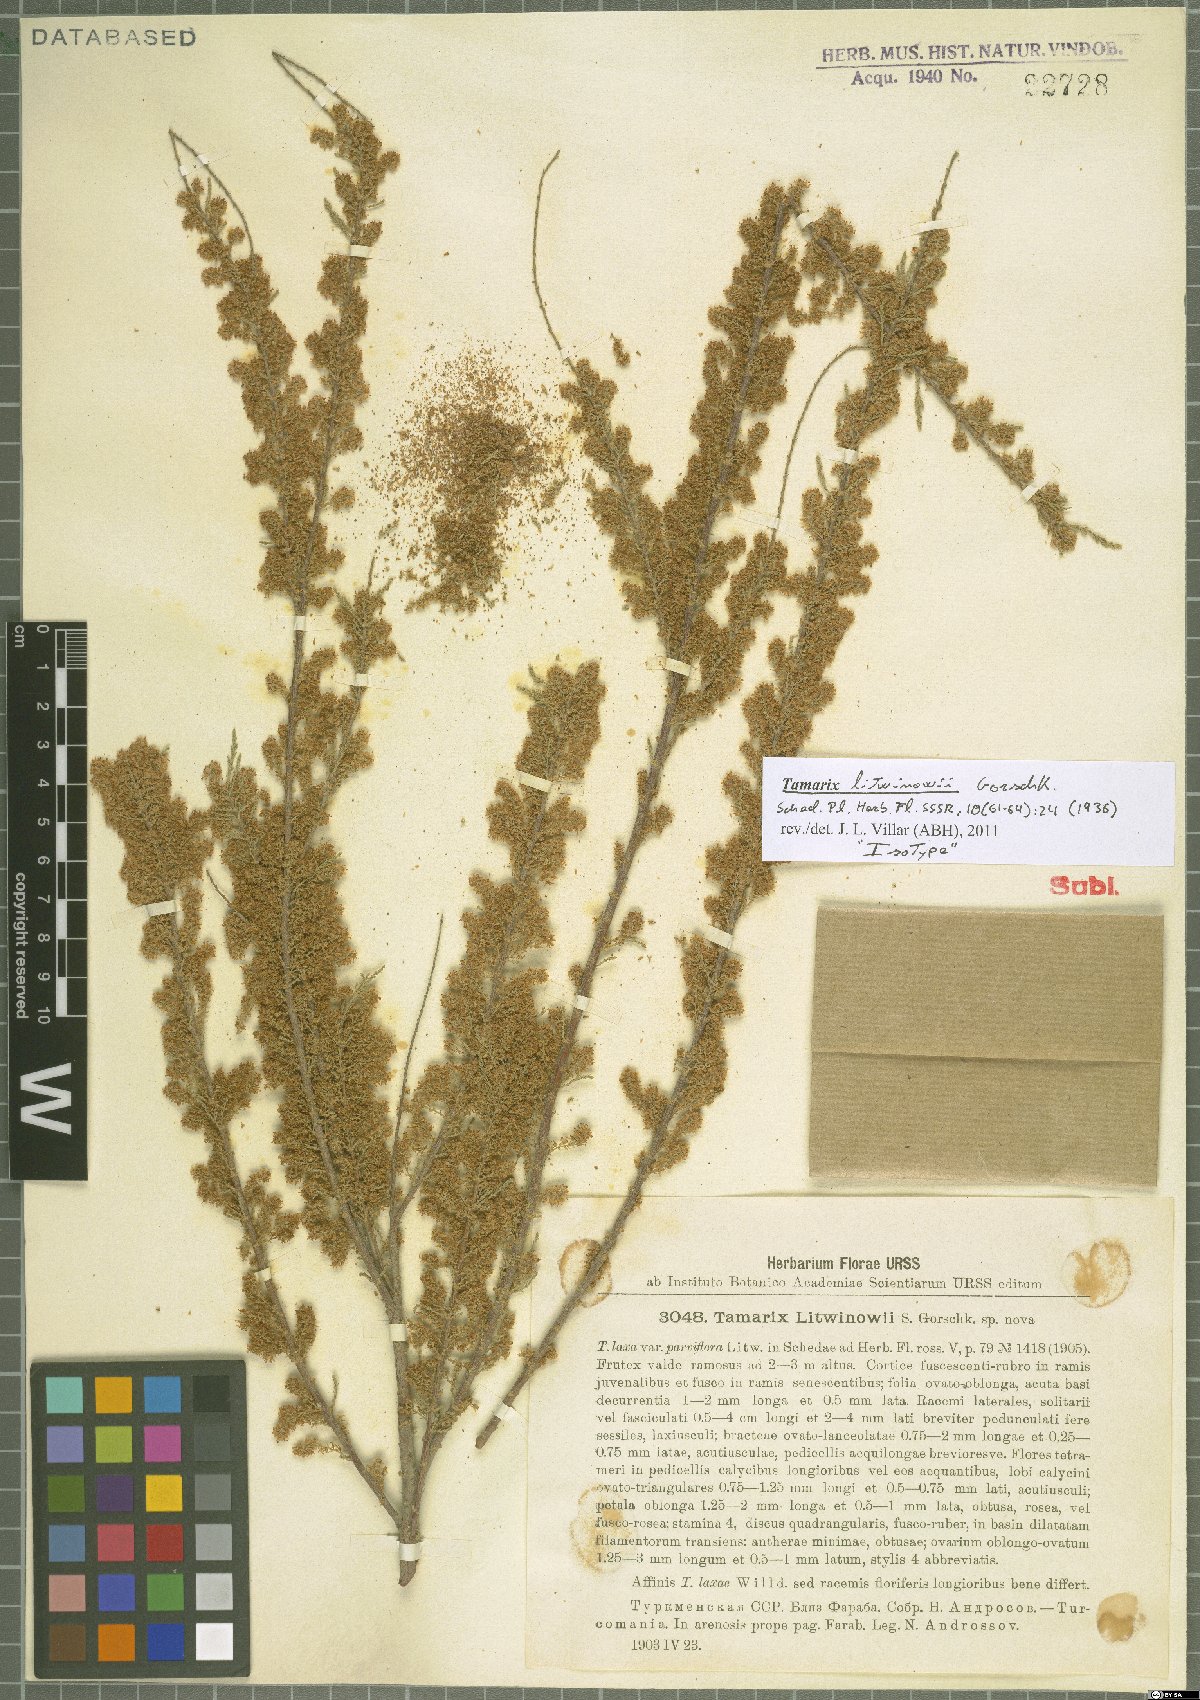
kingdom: Plantae
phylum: Tracheophyta
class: Magnoliopsida
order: Caryophyllales
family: Tamaricaceae
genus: Tamarix
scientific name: Tamarix litwinowii
